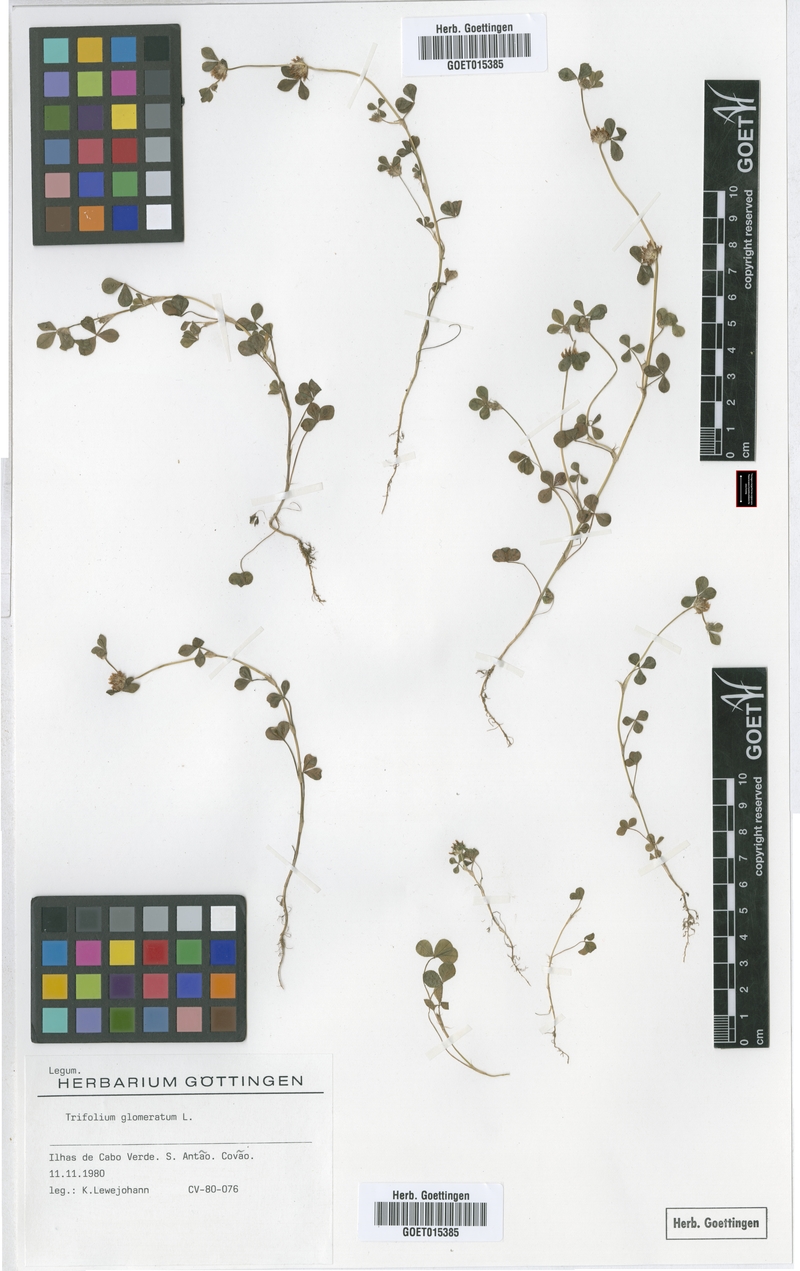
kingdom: Plantae
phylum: Tracheophyta
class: Magnoliopsida
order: Fabales
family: Fabaceae
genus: Trifolium
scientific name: Trifolium glomeratum
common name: Clustered clover
